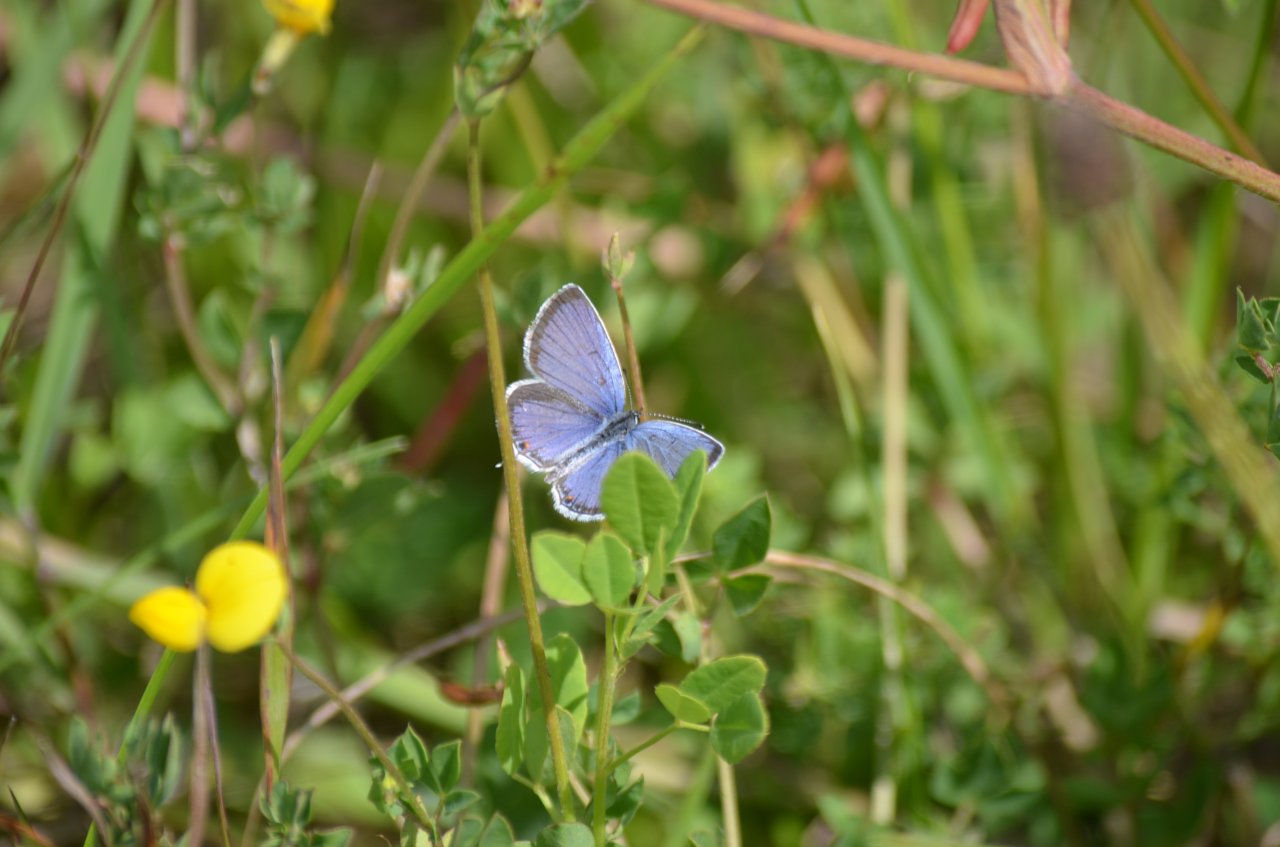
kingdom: Animalia
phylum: Arthropoda
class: Insecta
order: Lepidoptera
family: Lycaenidae
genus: Elkalyce
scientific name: Elkalyce comyntas
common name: Eastern Tailed-Blue
